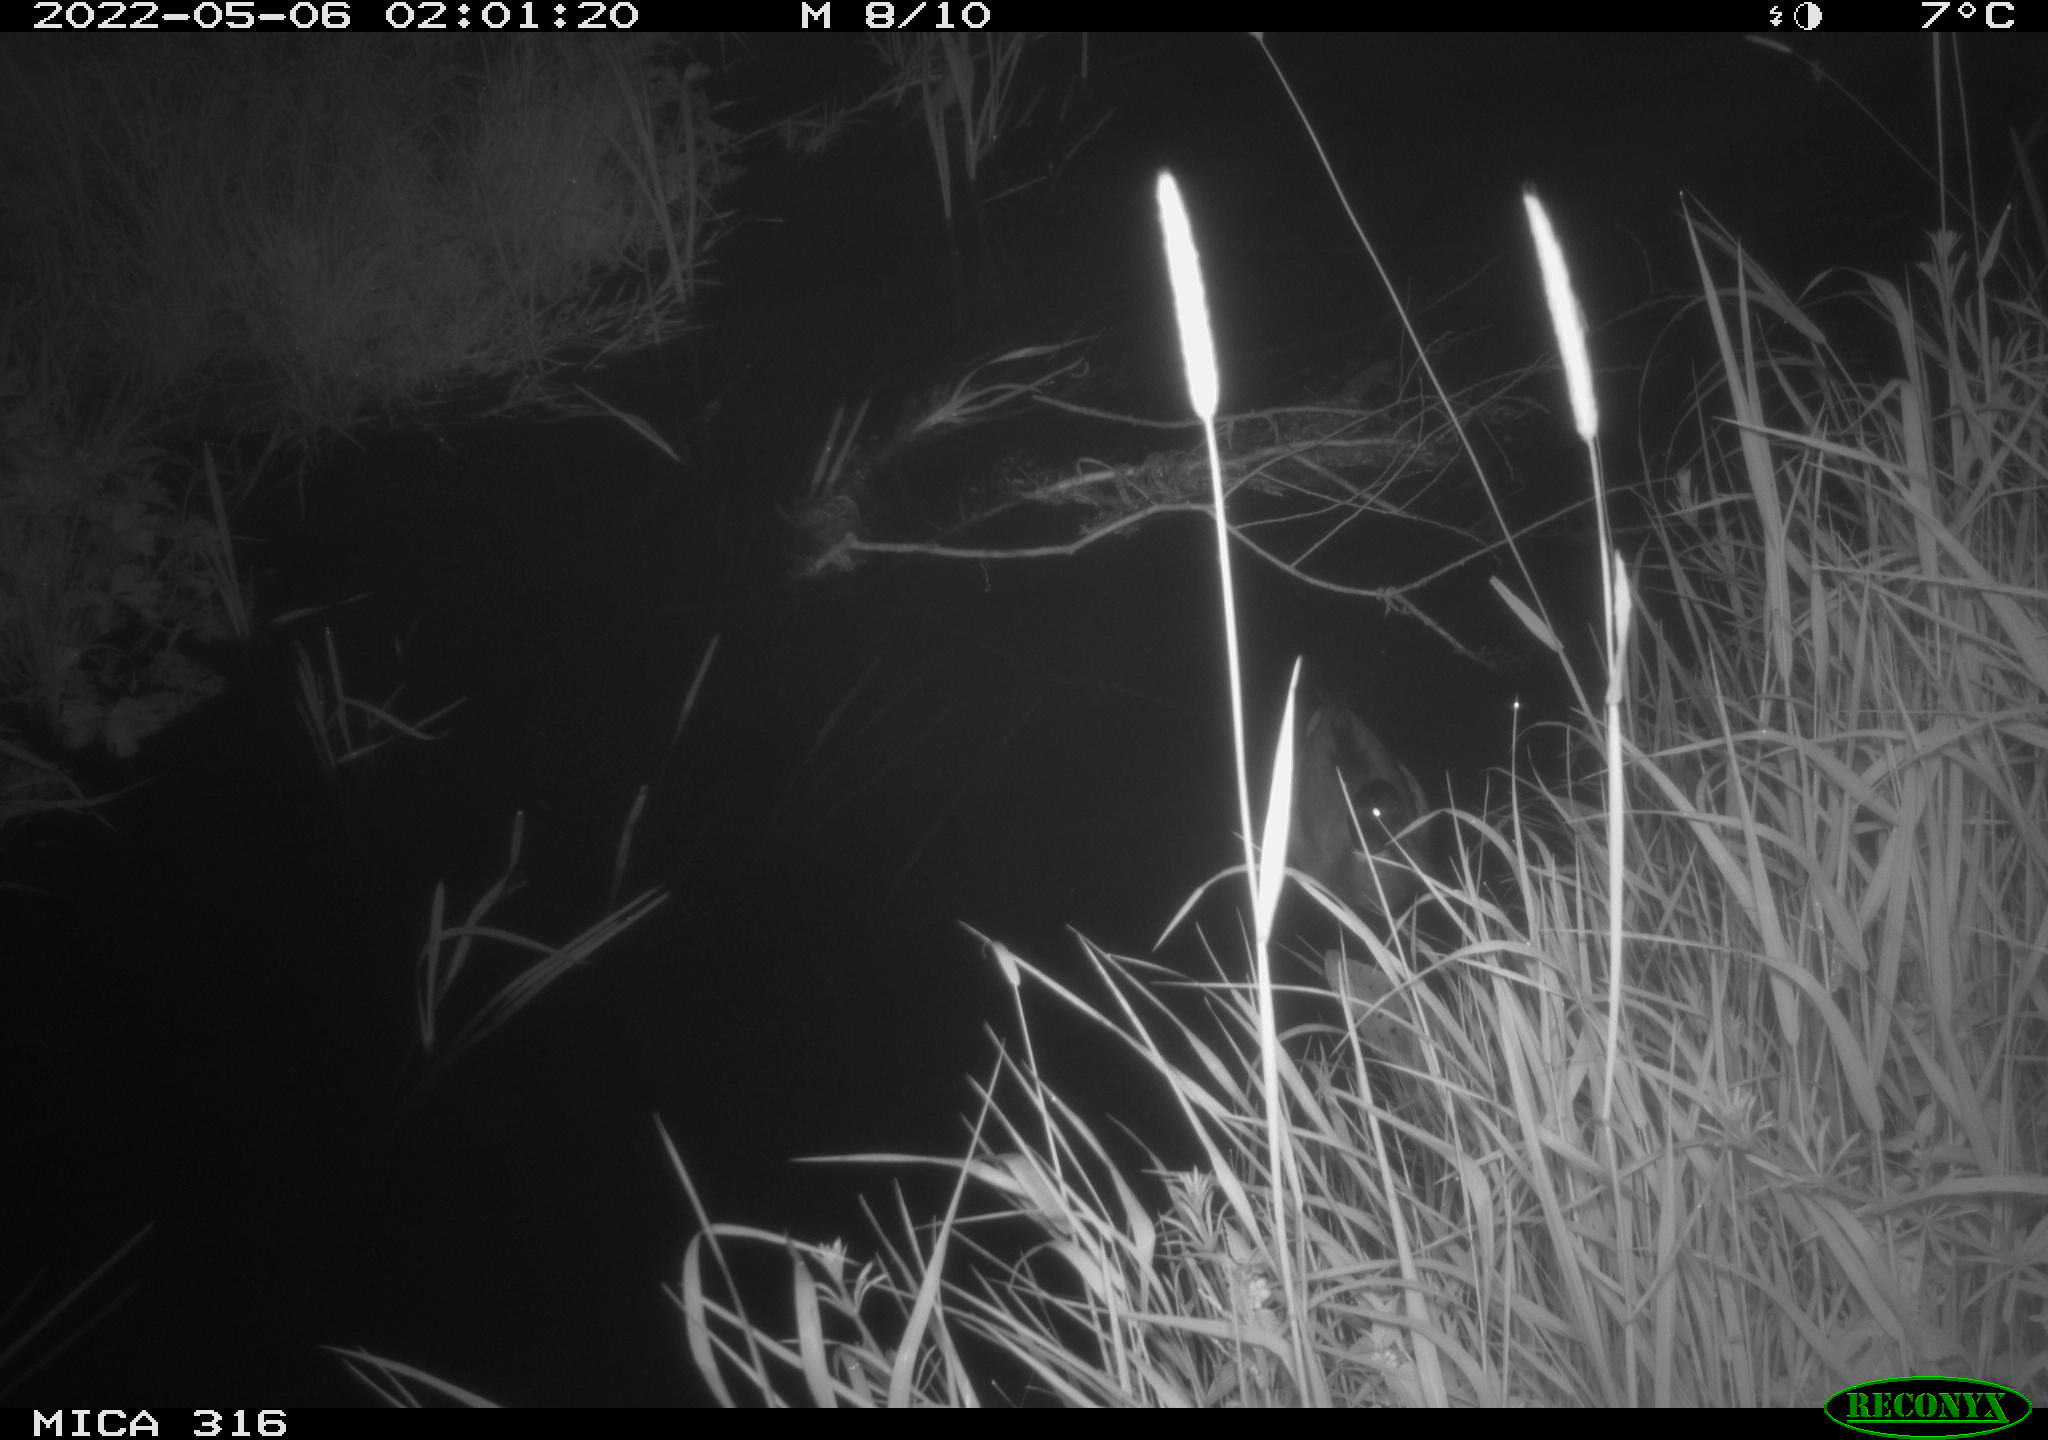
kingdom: Animalia
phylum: Chordata
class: Aves
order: Anseriformes
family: Anatidae
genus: Anas
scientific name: Anas platyrhynchos
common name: Mallard
